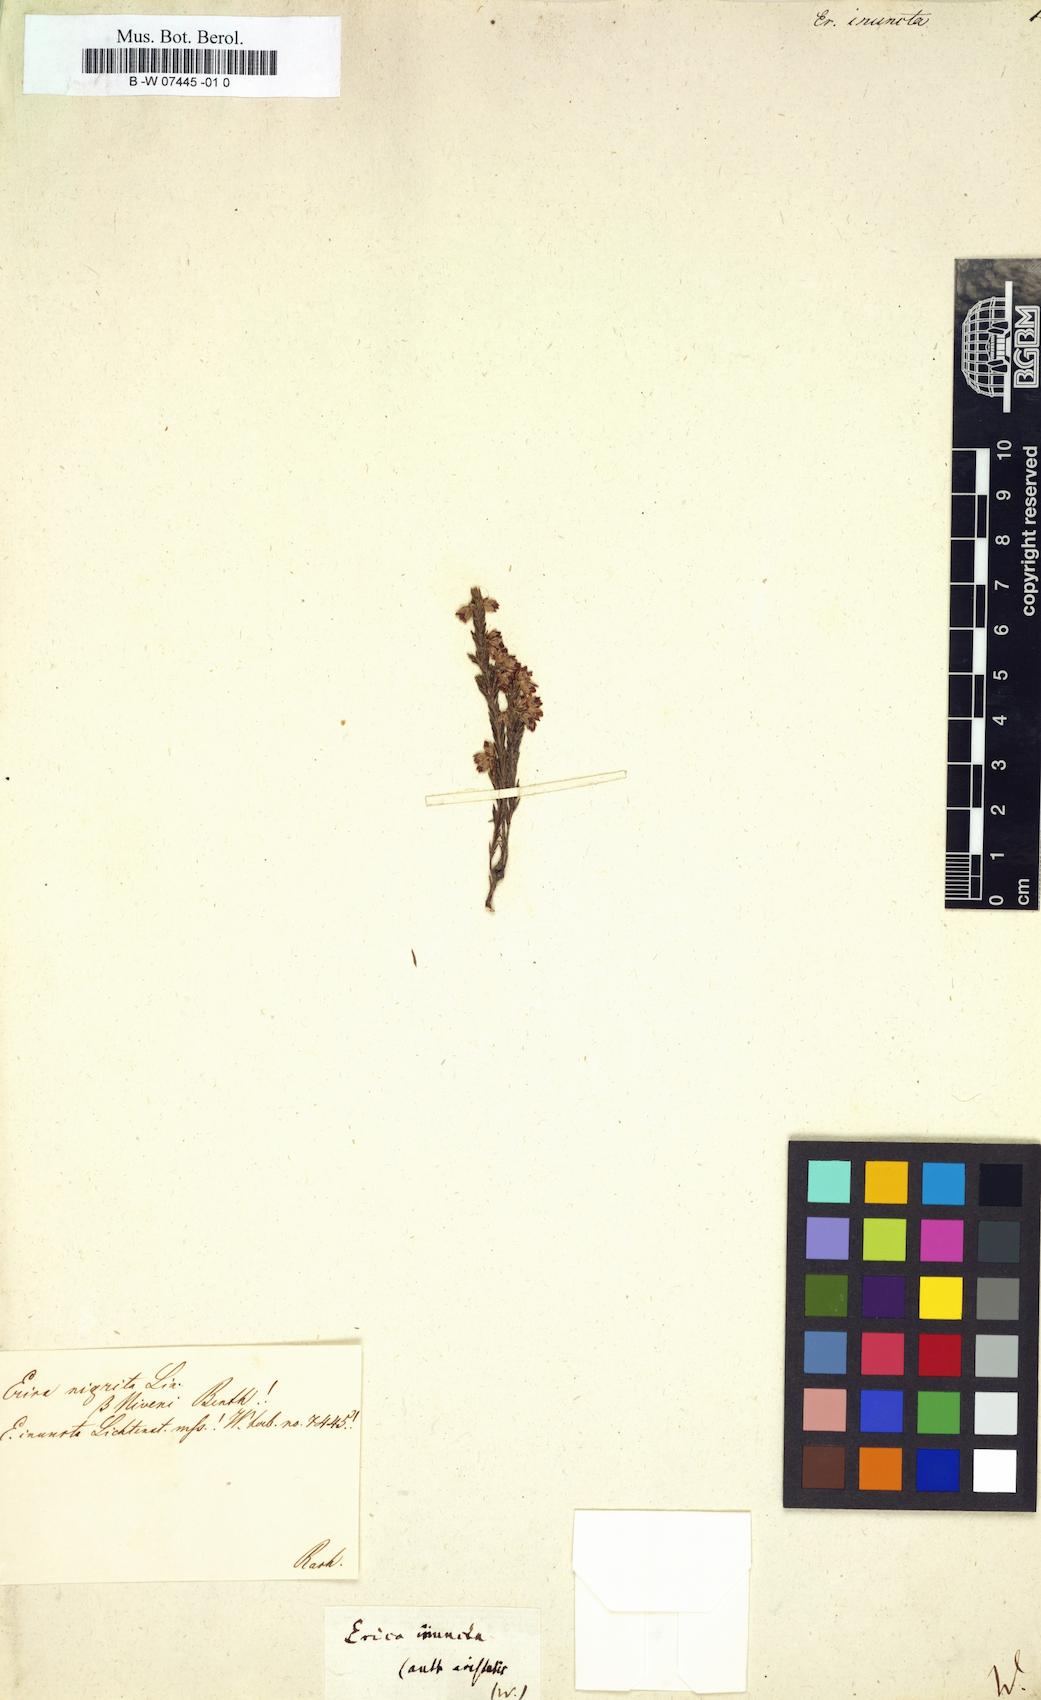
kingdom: Plantae
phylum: Tracheophyta
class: Magnoliopsida
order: Ericales
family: Ericaceae
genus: Erica
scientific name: Erica
